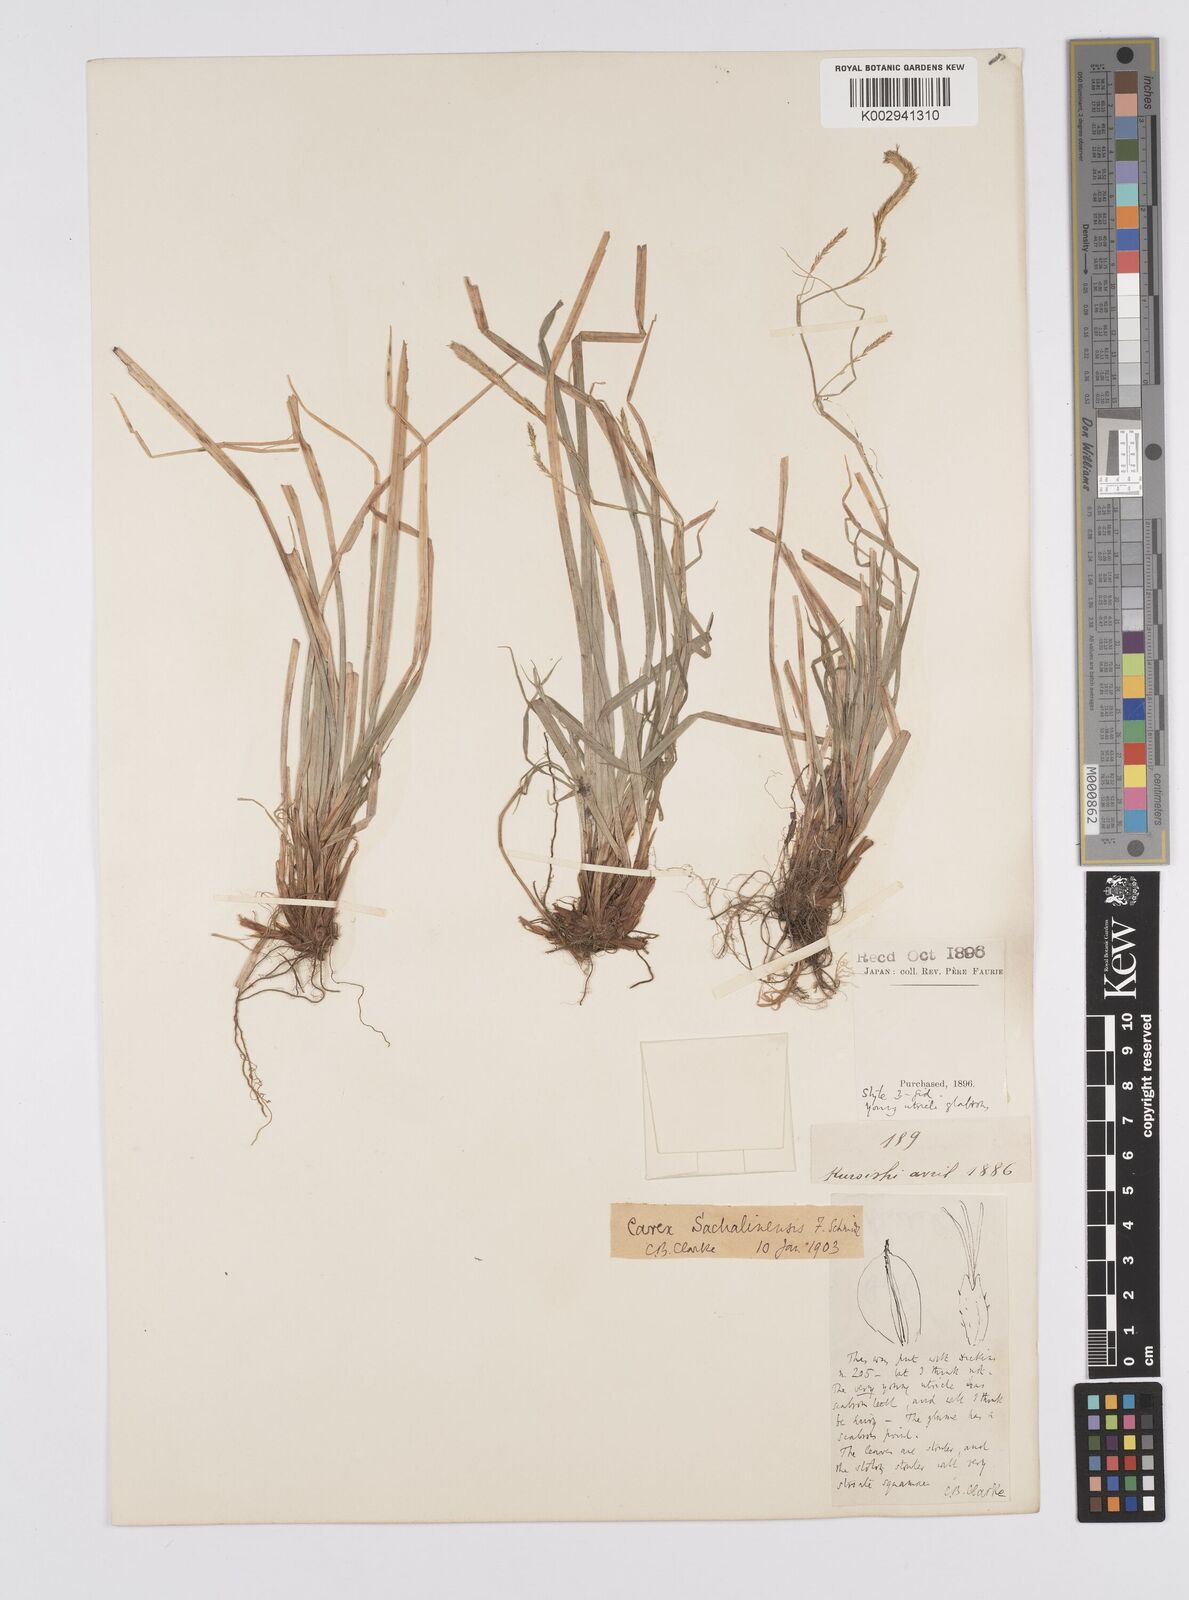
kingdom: Plantae
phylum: Tracheophyta
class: Liliopsida
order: Poales
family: Cyperaceae
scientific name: Cyperaceae
